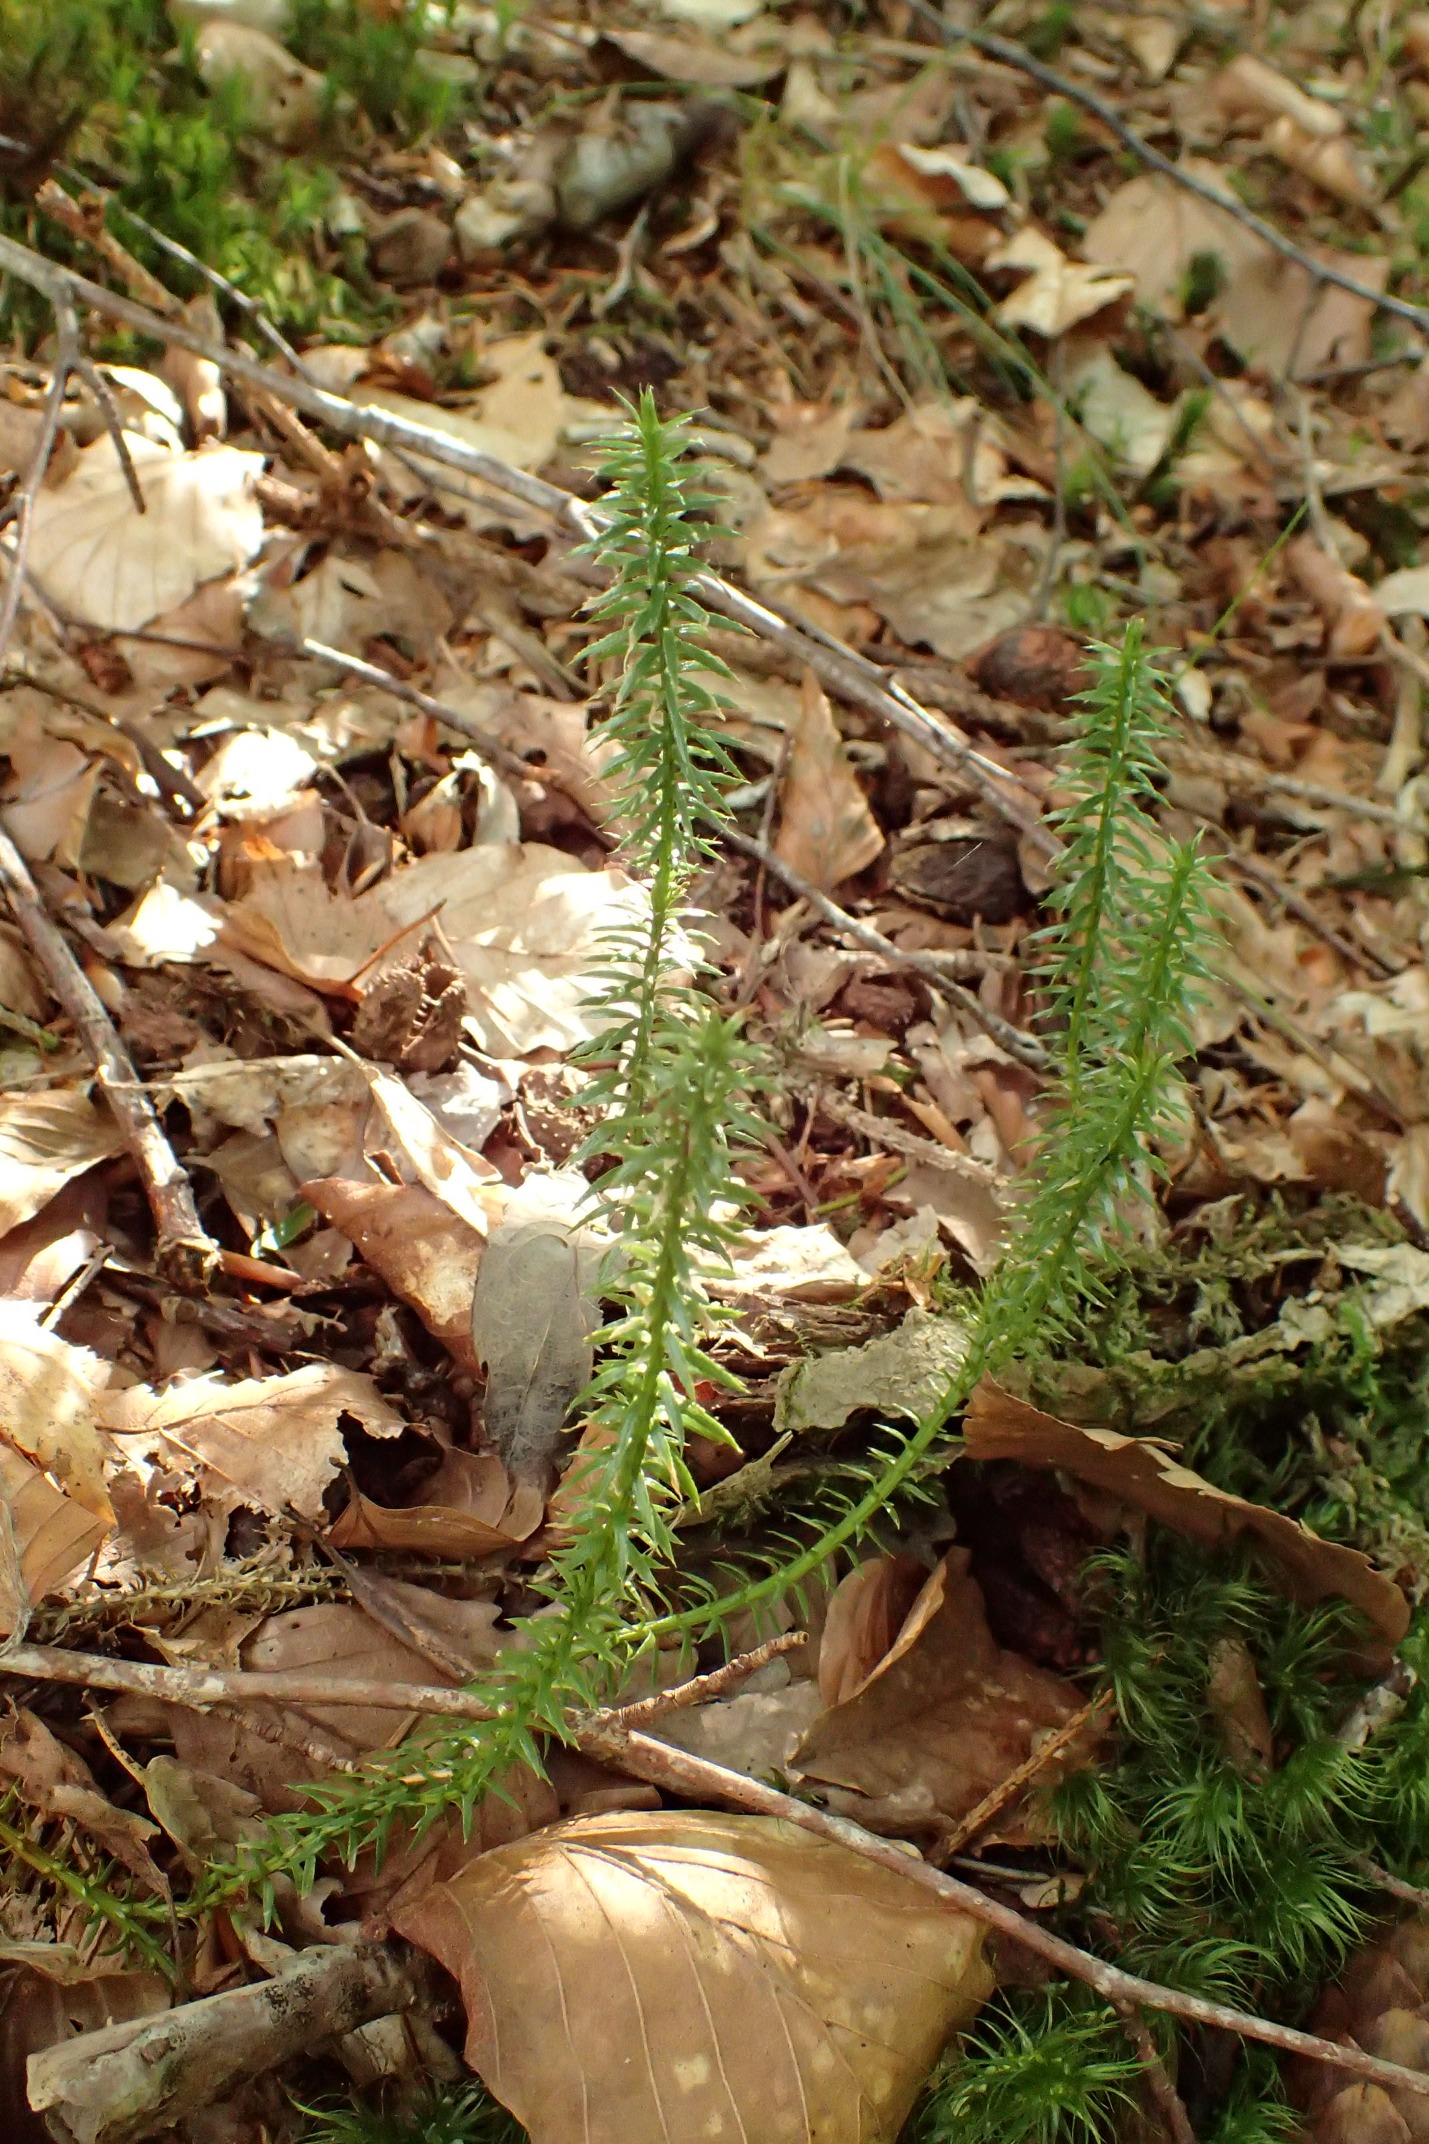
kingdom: Plantae
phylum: Tracheophyta
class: Lycopodiopsida
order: Lycopodiales
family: Lycopodiaceae
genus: Spinulum
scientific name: Spinulum annotinum
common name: Femradet ulvefod
